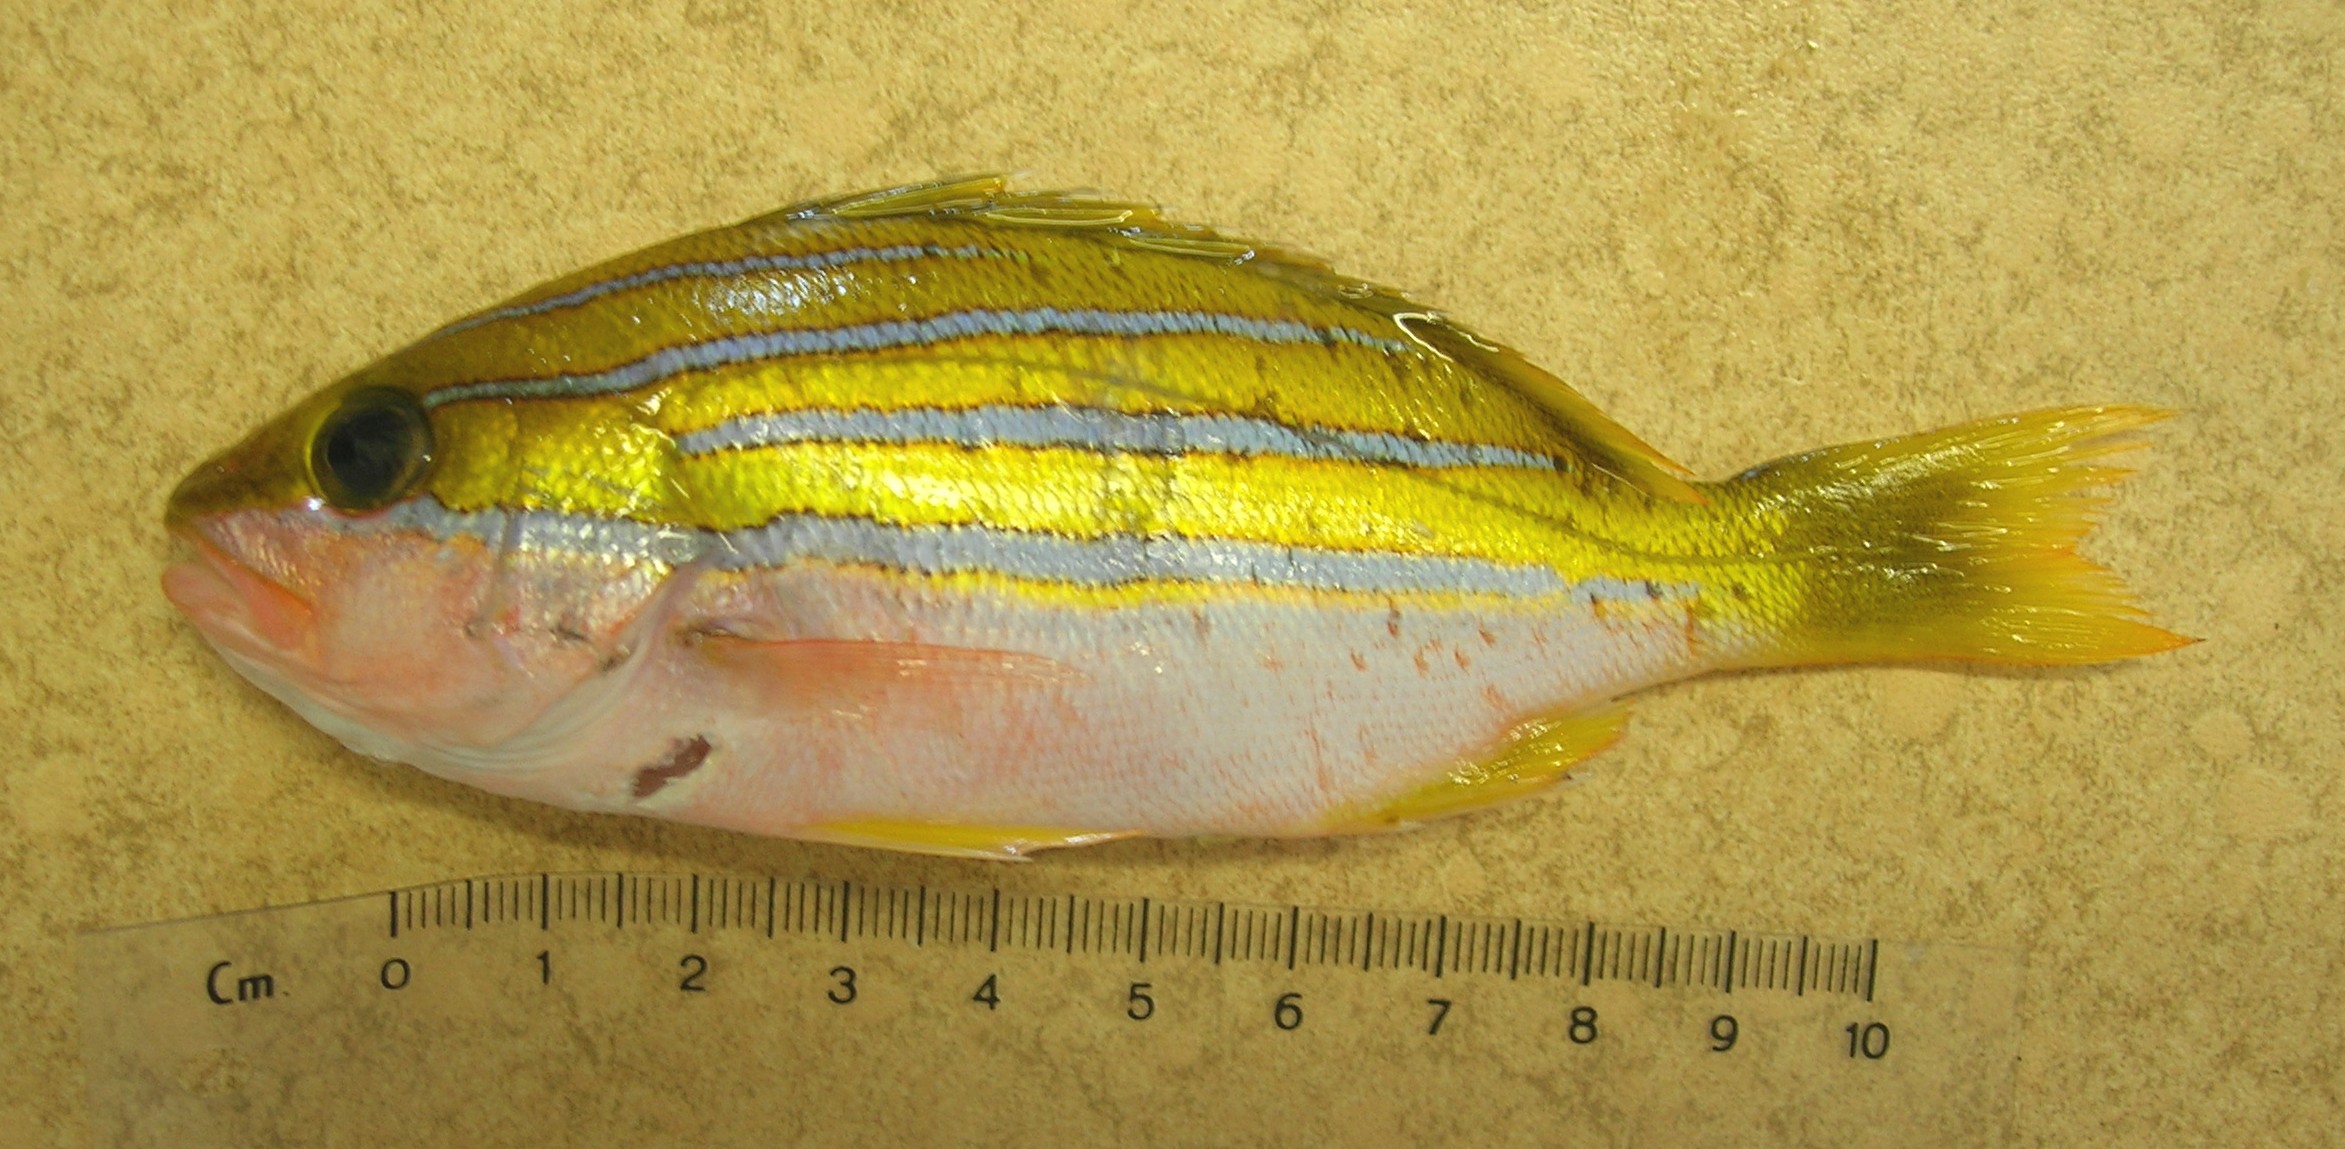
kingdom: Animalia
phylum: Chordata
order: Perciformes
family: Lutjanidae
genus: Lutjanus
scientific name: Lutjanus bengalensis
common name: Bengal snapper
